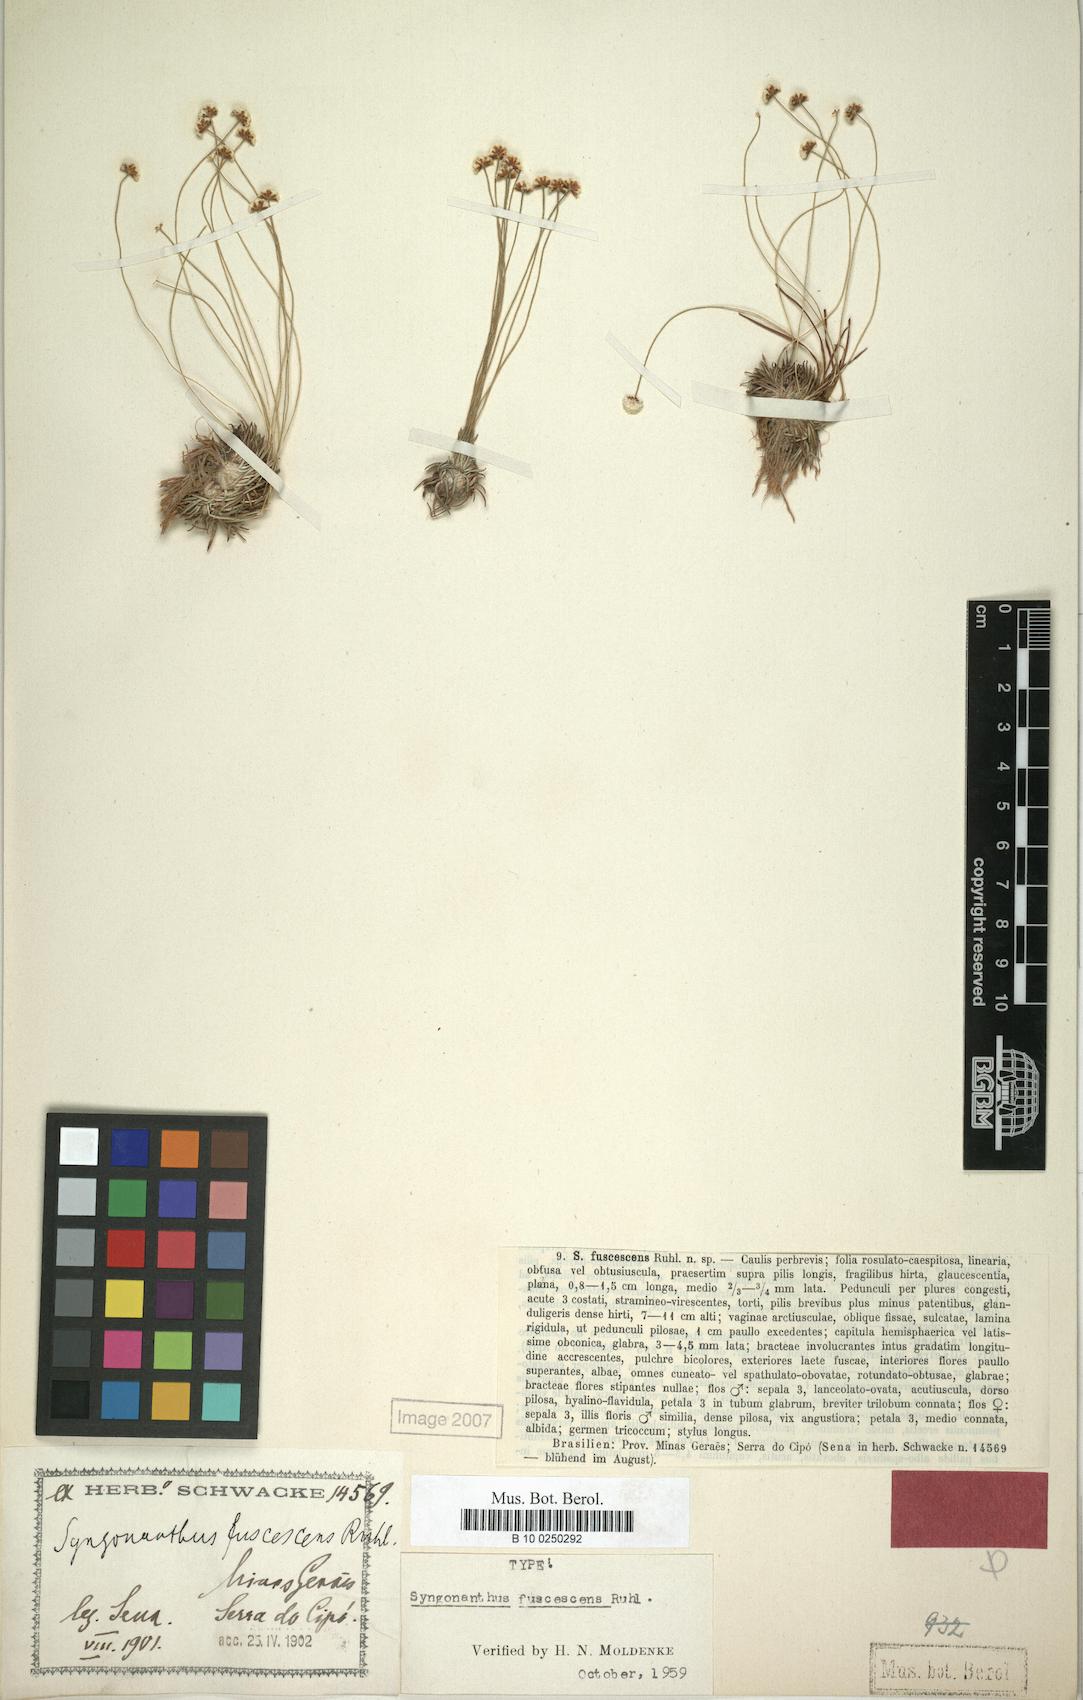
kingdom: Plantae
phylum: Tracheophyta
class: Liliopsida
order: Poales
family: Eriocaulaceae
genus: Syngonanthus
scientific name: Syngonanthus fuscescens
